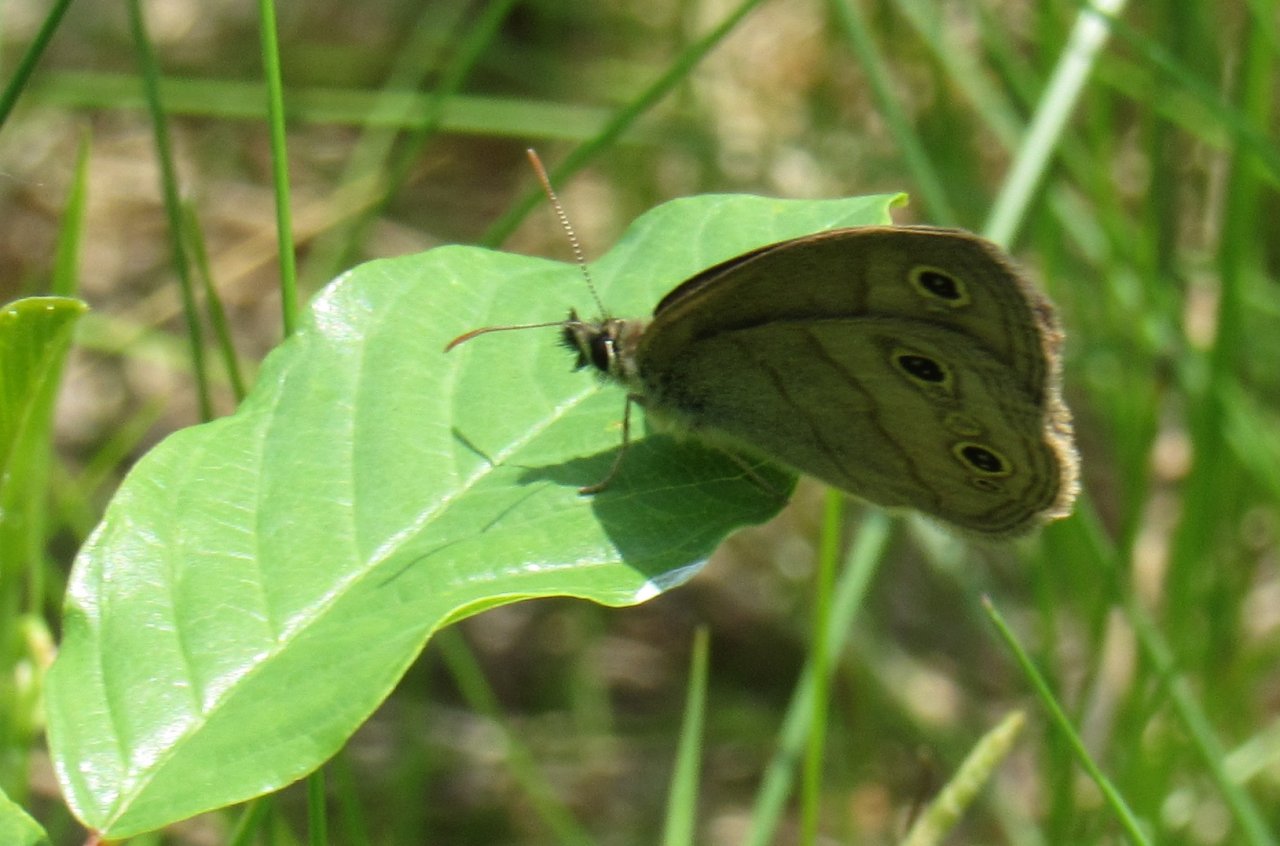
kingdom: Animalia
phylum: Arthropoda
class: Insecta
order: Lepidoptera
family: Nymphalidae
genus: Euptychia
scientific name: Euptychia cymela
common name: Little Wood Satyr
